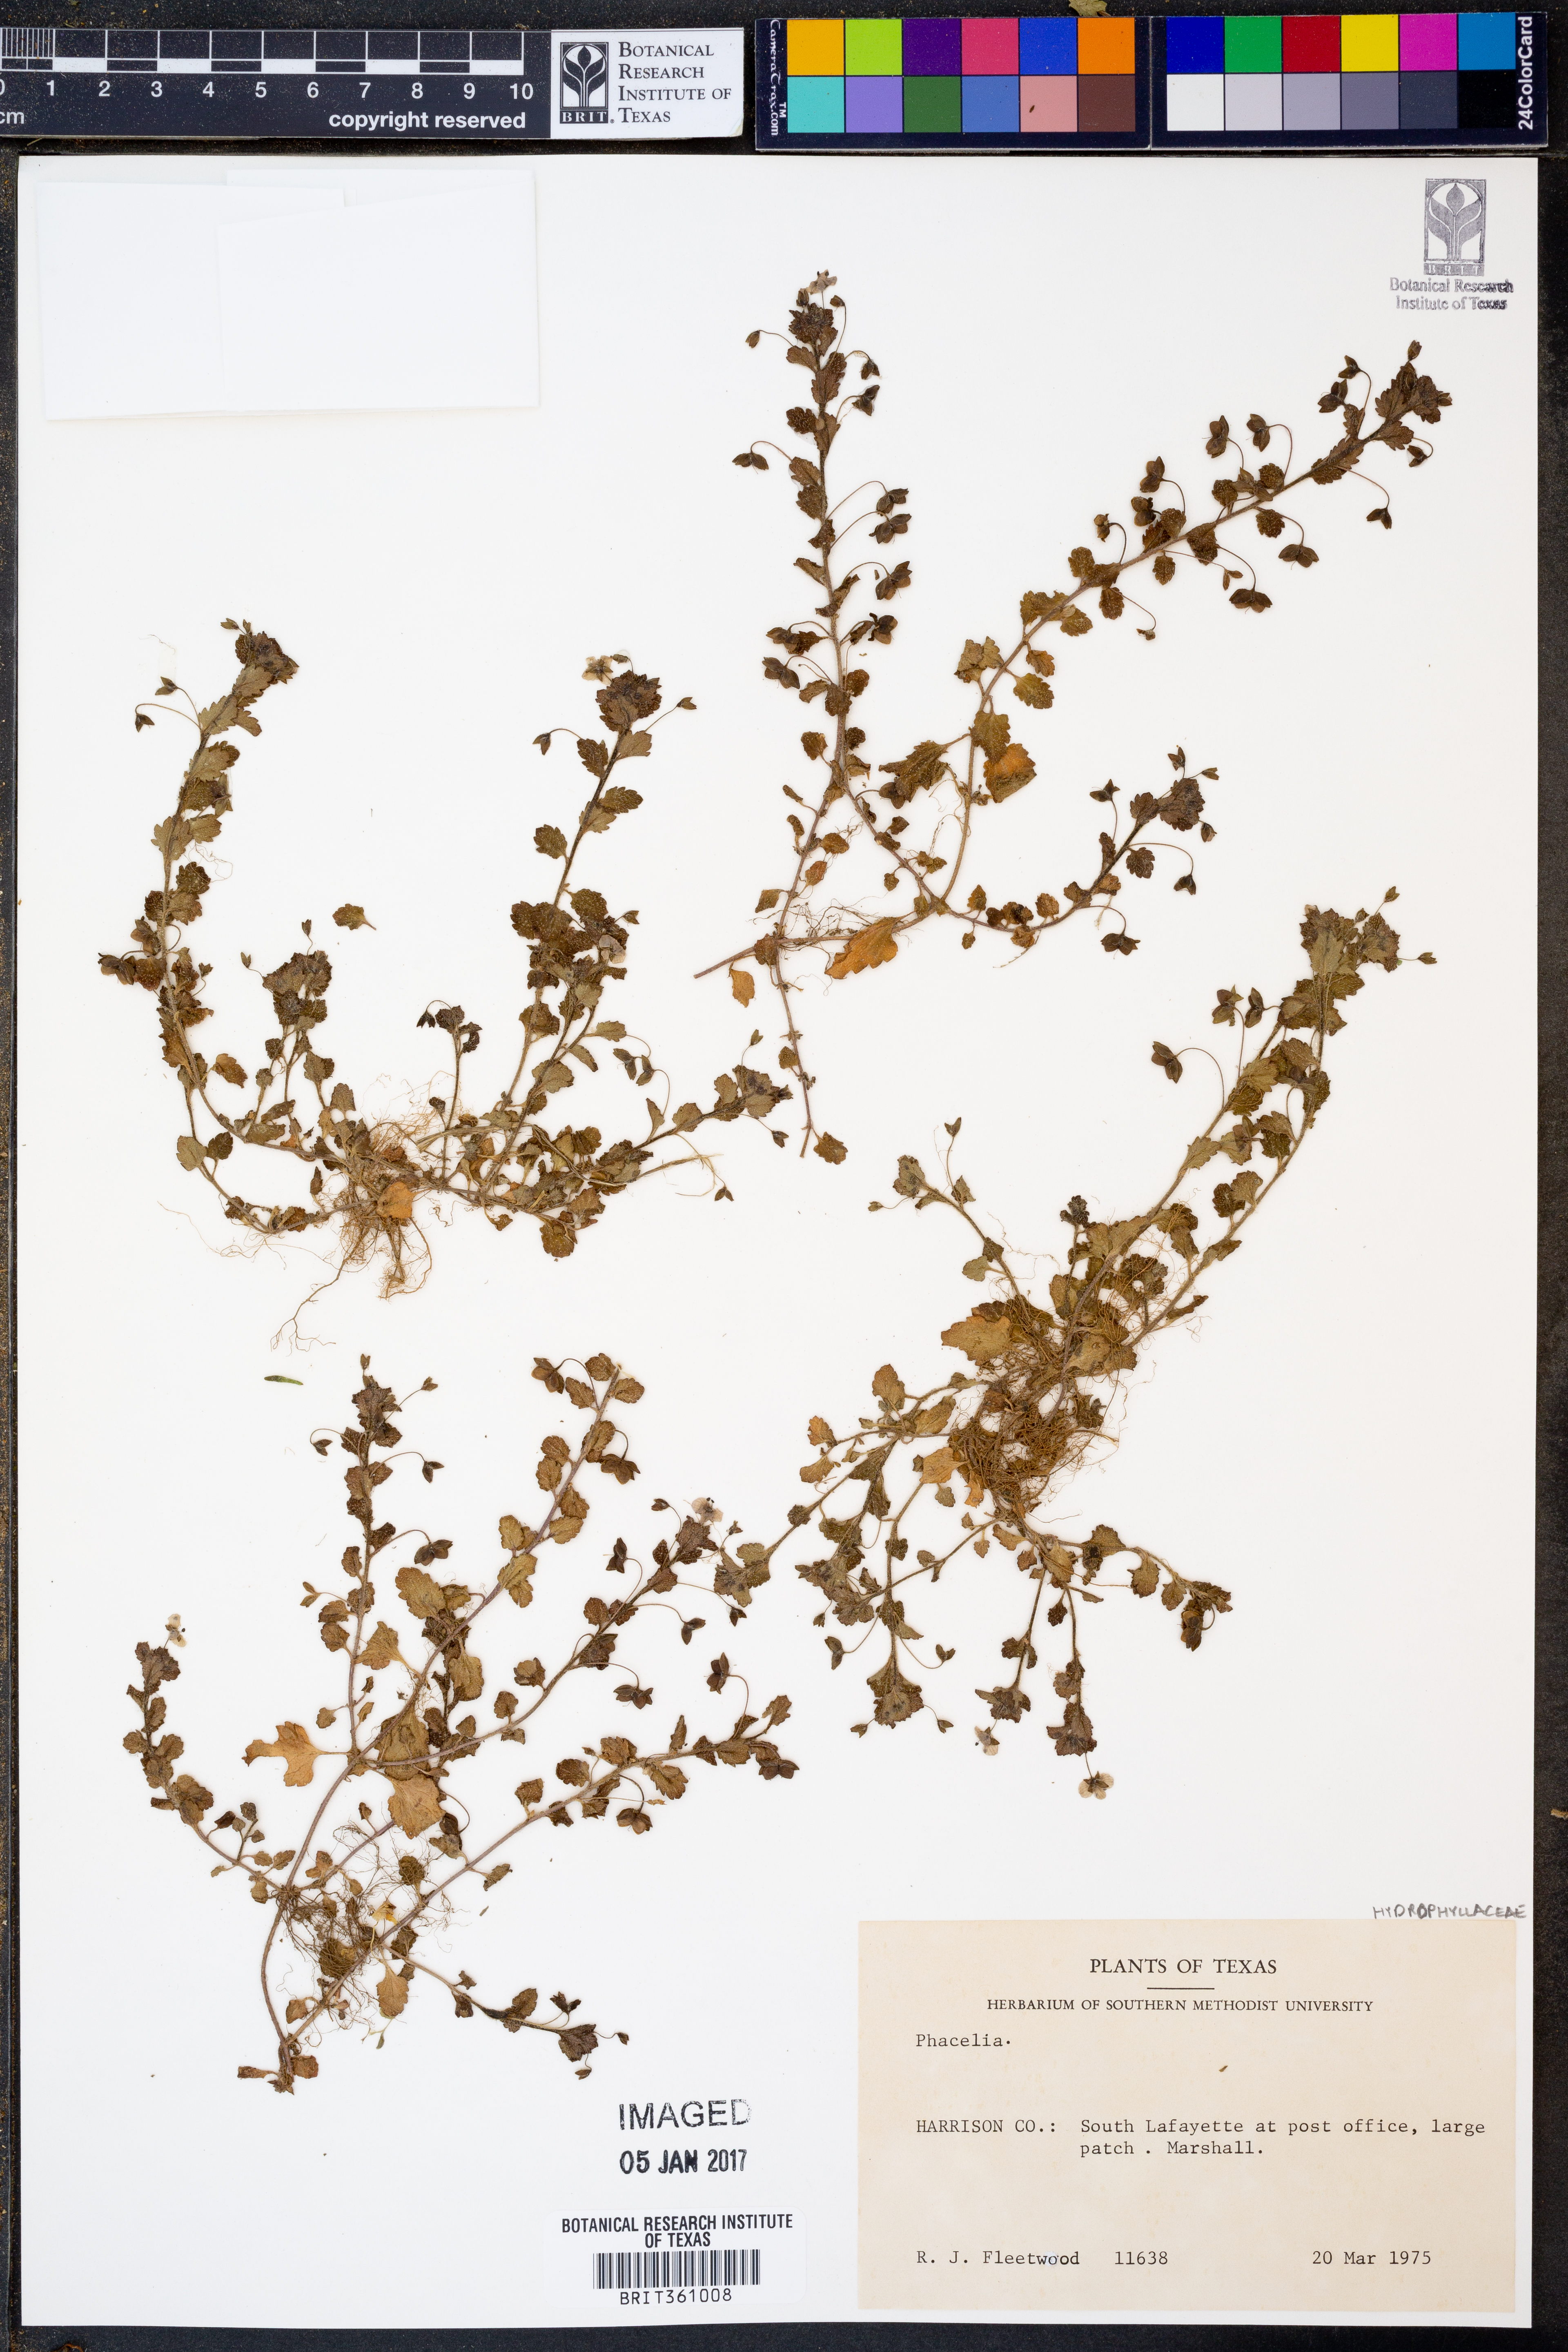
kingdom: Plantae
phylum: Tracheophyta
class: Magnoliopsida
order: Boraginales
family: Hydrophyllaceae
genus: Phacelia
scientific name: Phacelia
